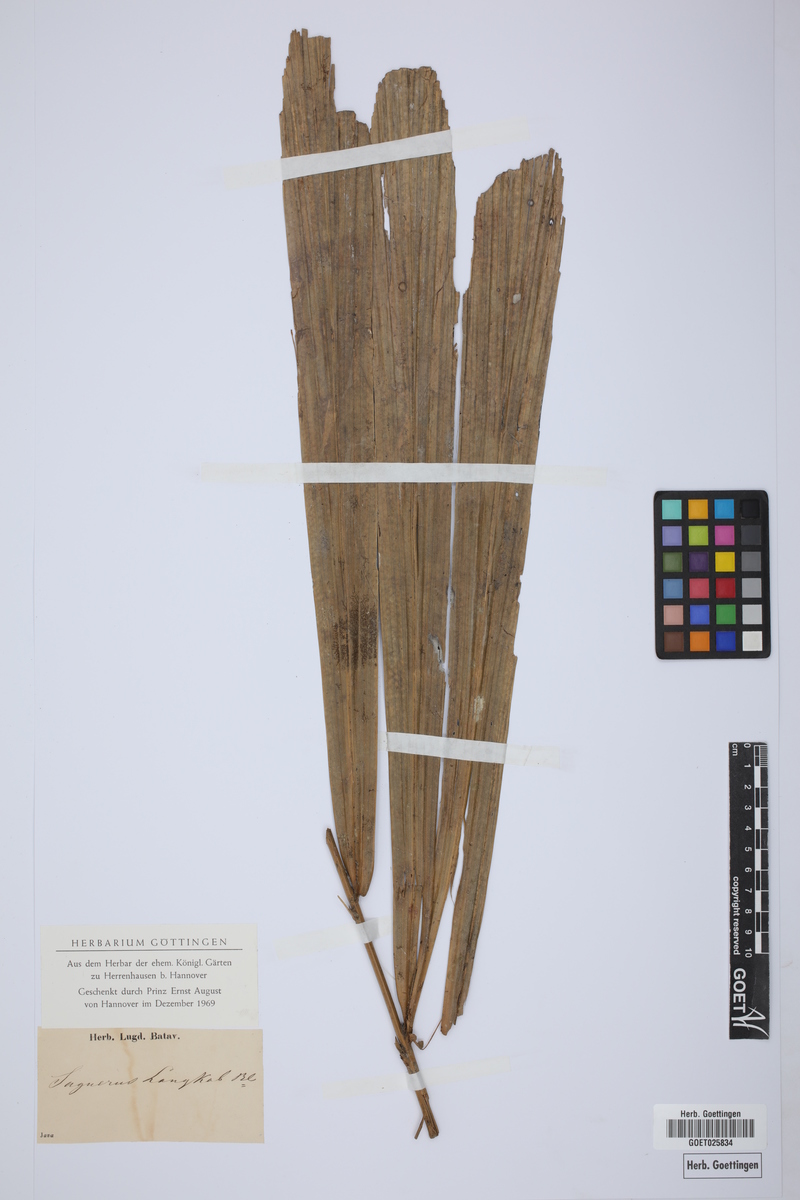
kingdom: Plantae
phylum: Tracheophyta
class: Liliopsida
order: Arecales
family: Arecaceae
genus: Arenga
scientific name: Arenga obtusifolia
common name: Lang kap
